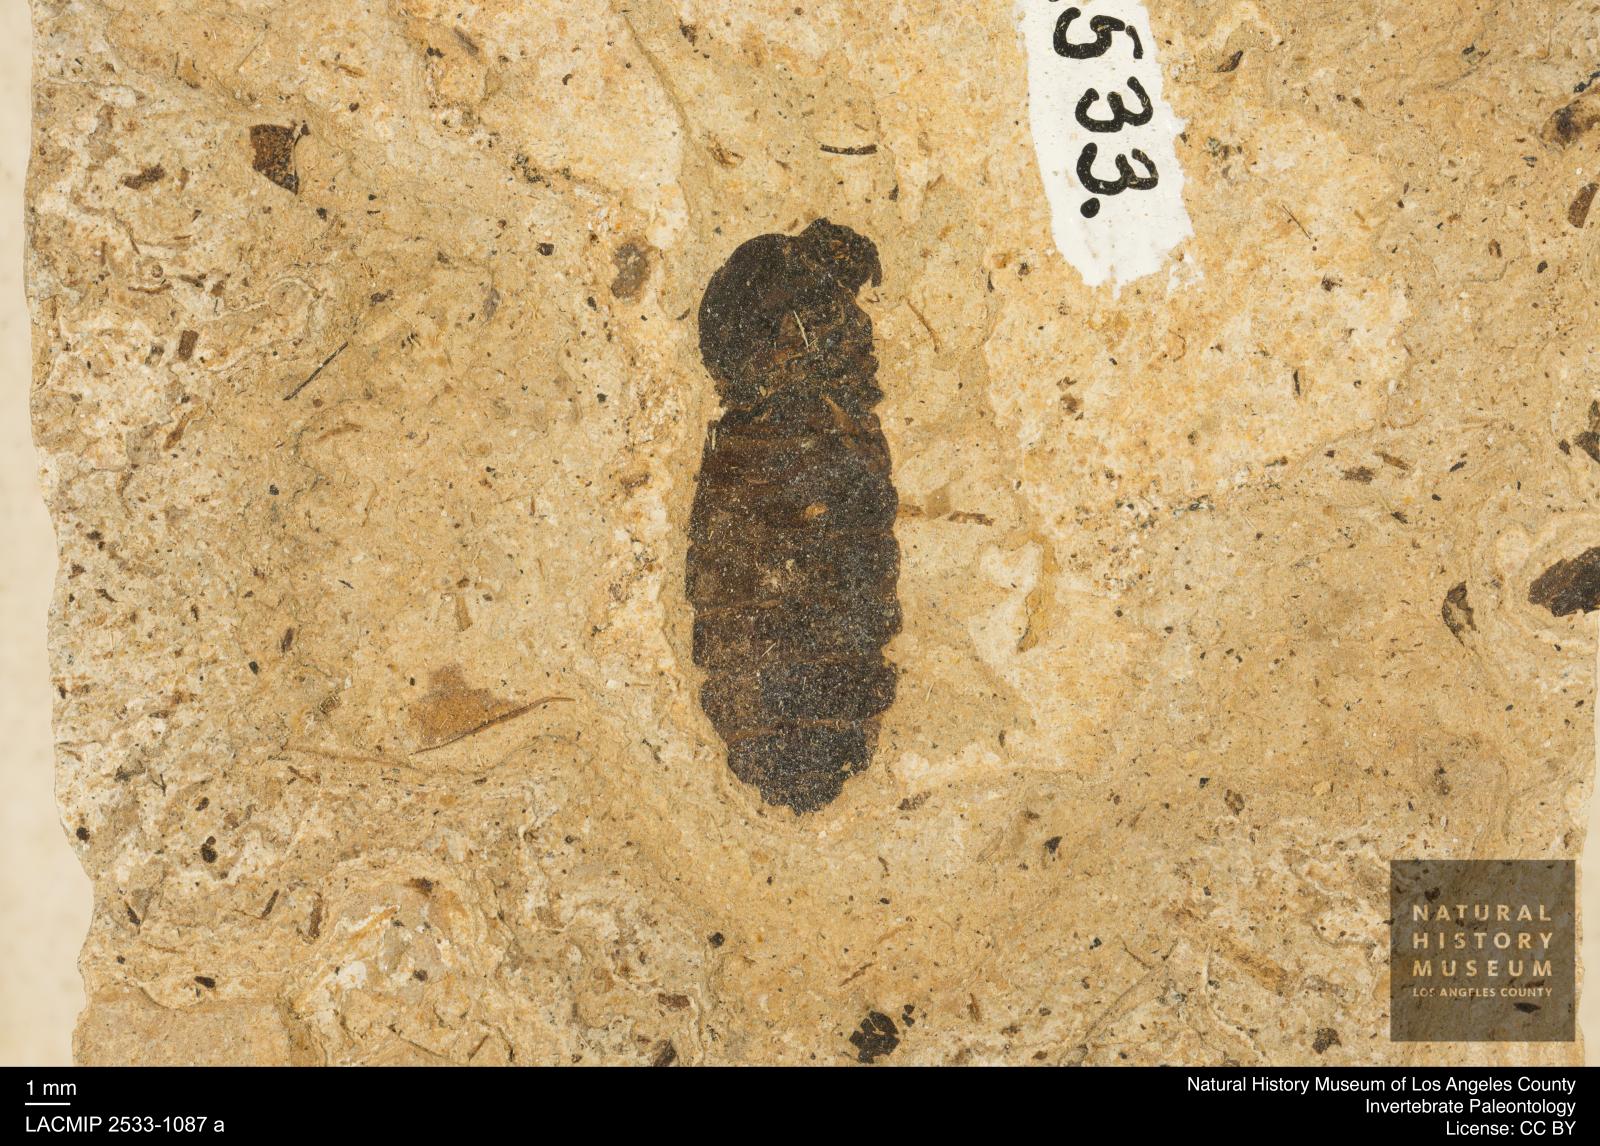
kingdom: Animalia
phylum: Arthropoda
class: Insecta
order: Diptera
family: Bibionidae
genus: Plecia
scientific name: Plecia dubia
